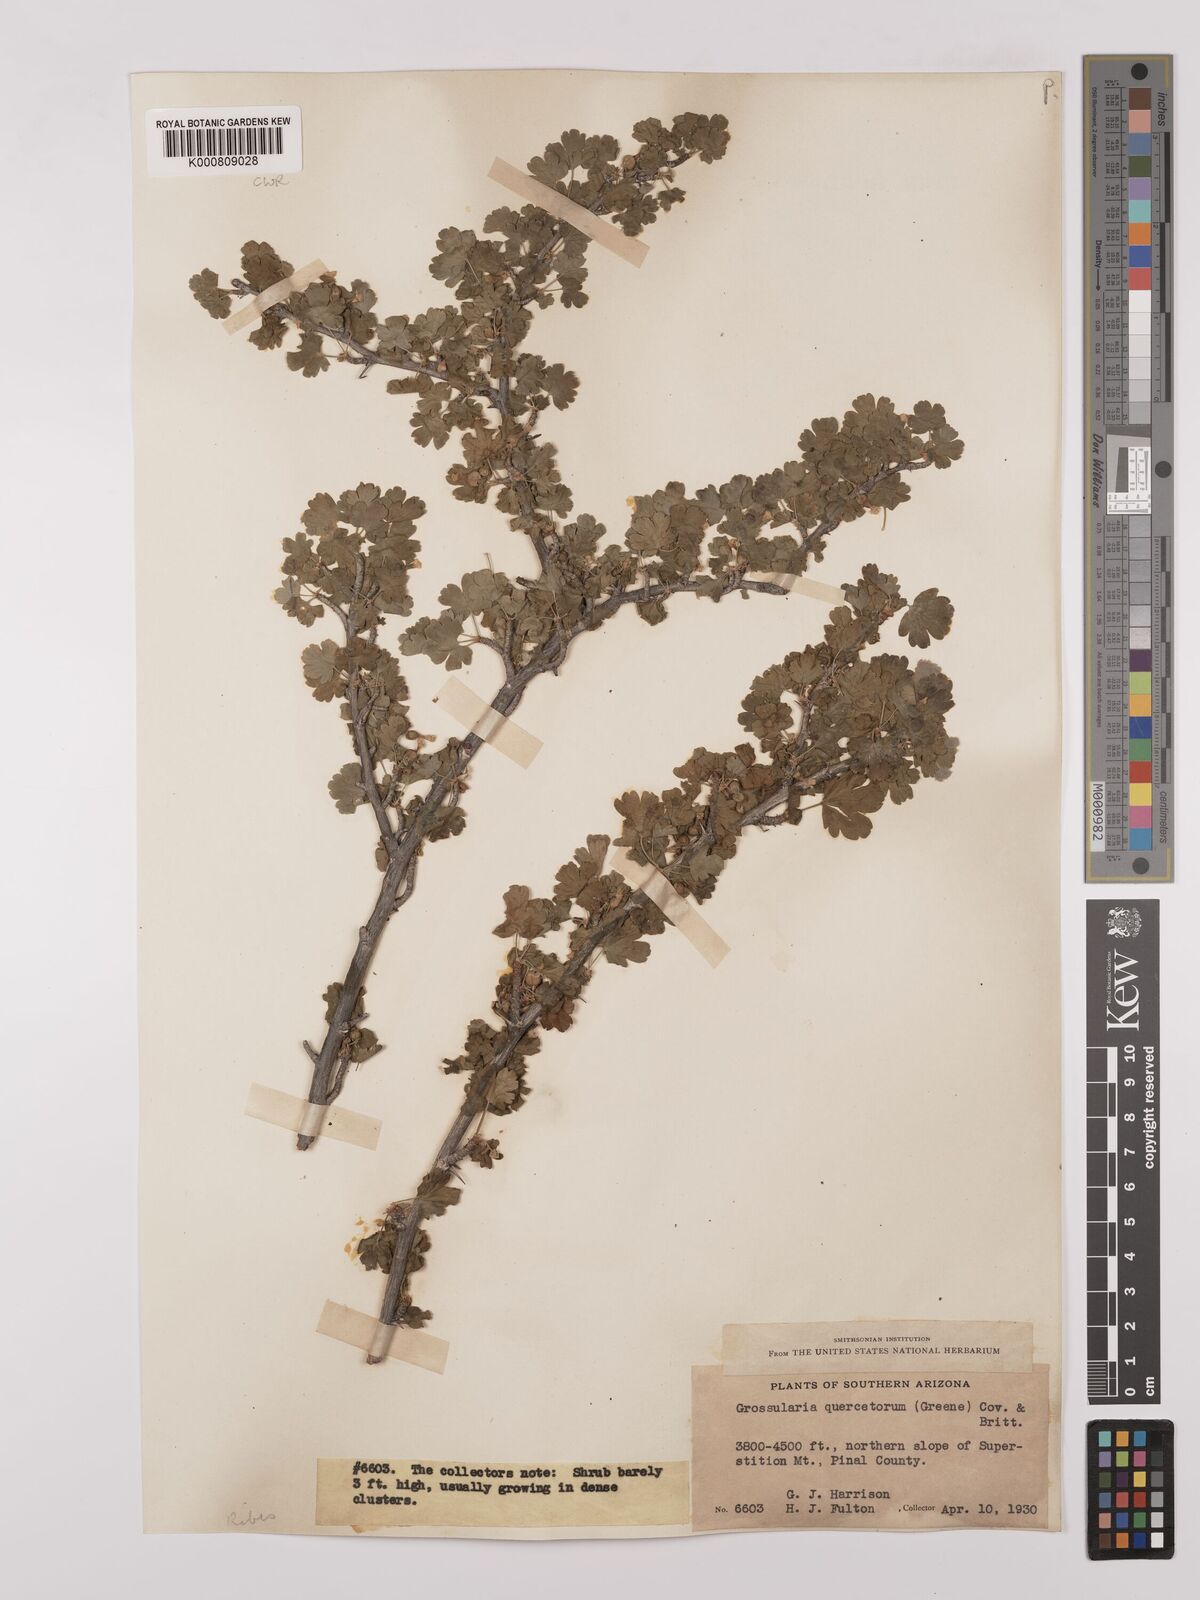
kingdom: Plantae
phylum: Tracheophyta
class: Magnoliopsida
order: Saxifragales
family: Grossulariaceae
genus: Ribes
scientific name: Ribes
